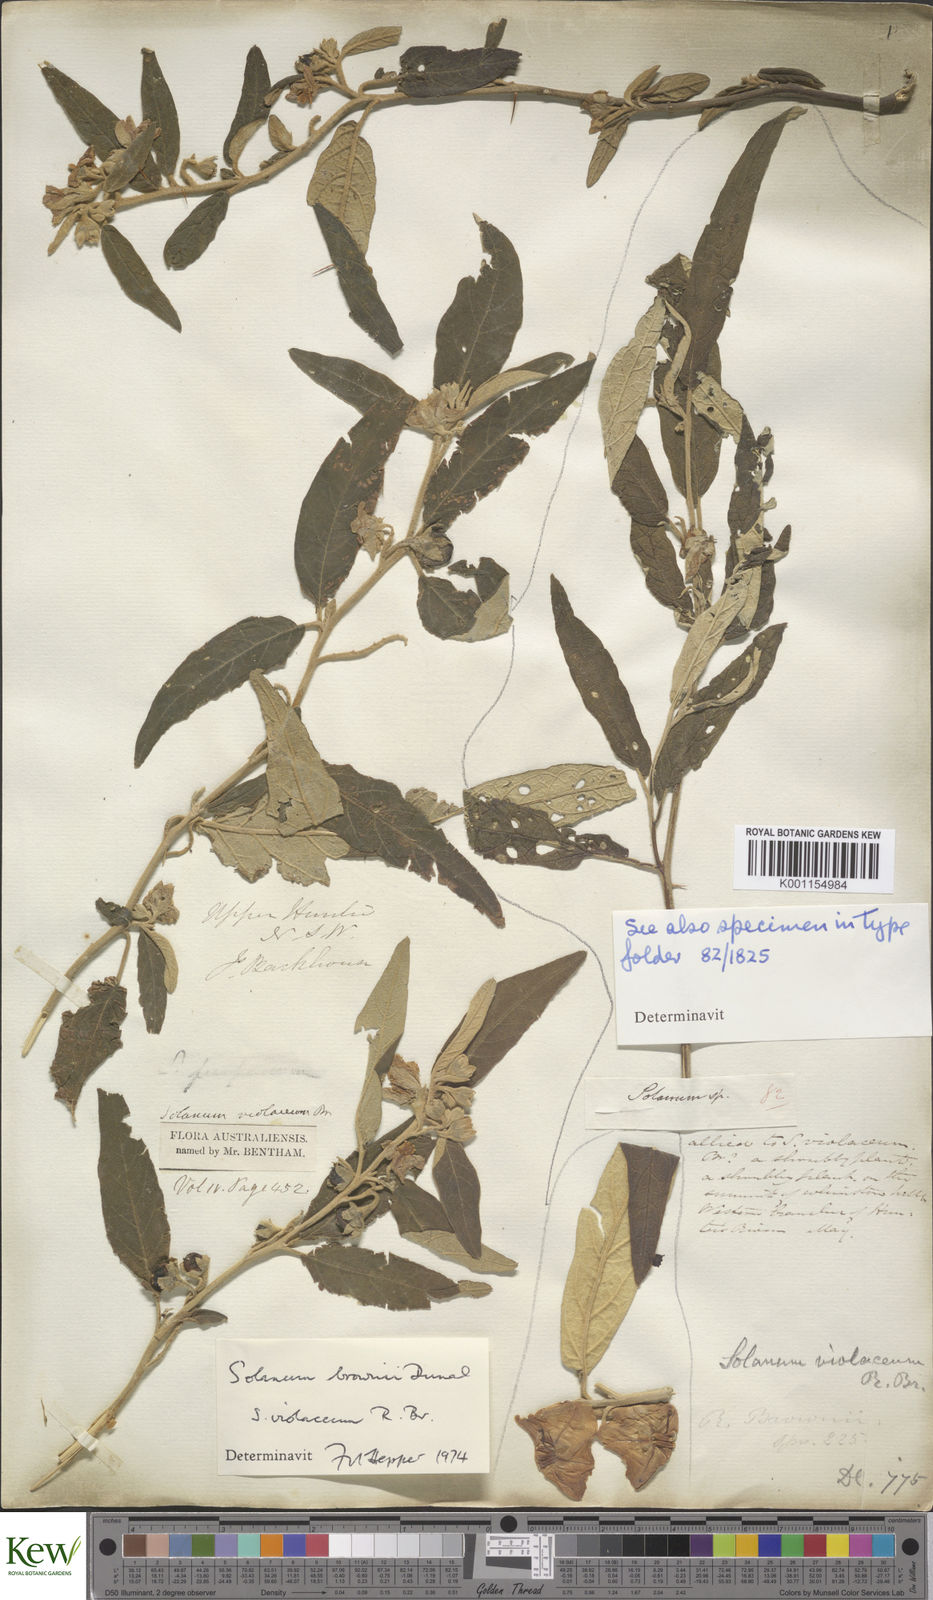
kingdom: Plantae
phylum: Tracheophyta
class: Magnoliopsida
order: Solanales
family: Solanaceae
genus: Solanum
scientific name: Solanum brownii
